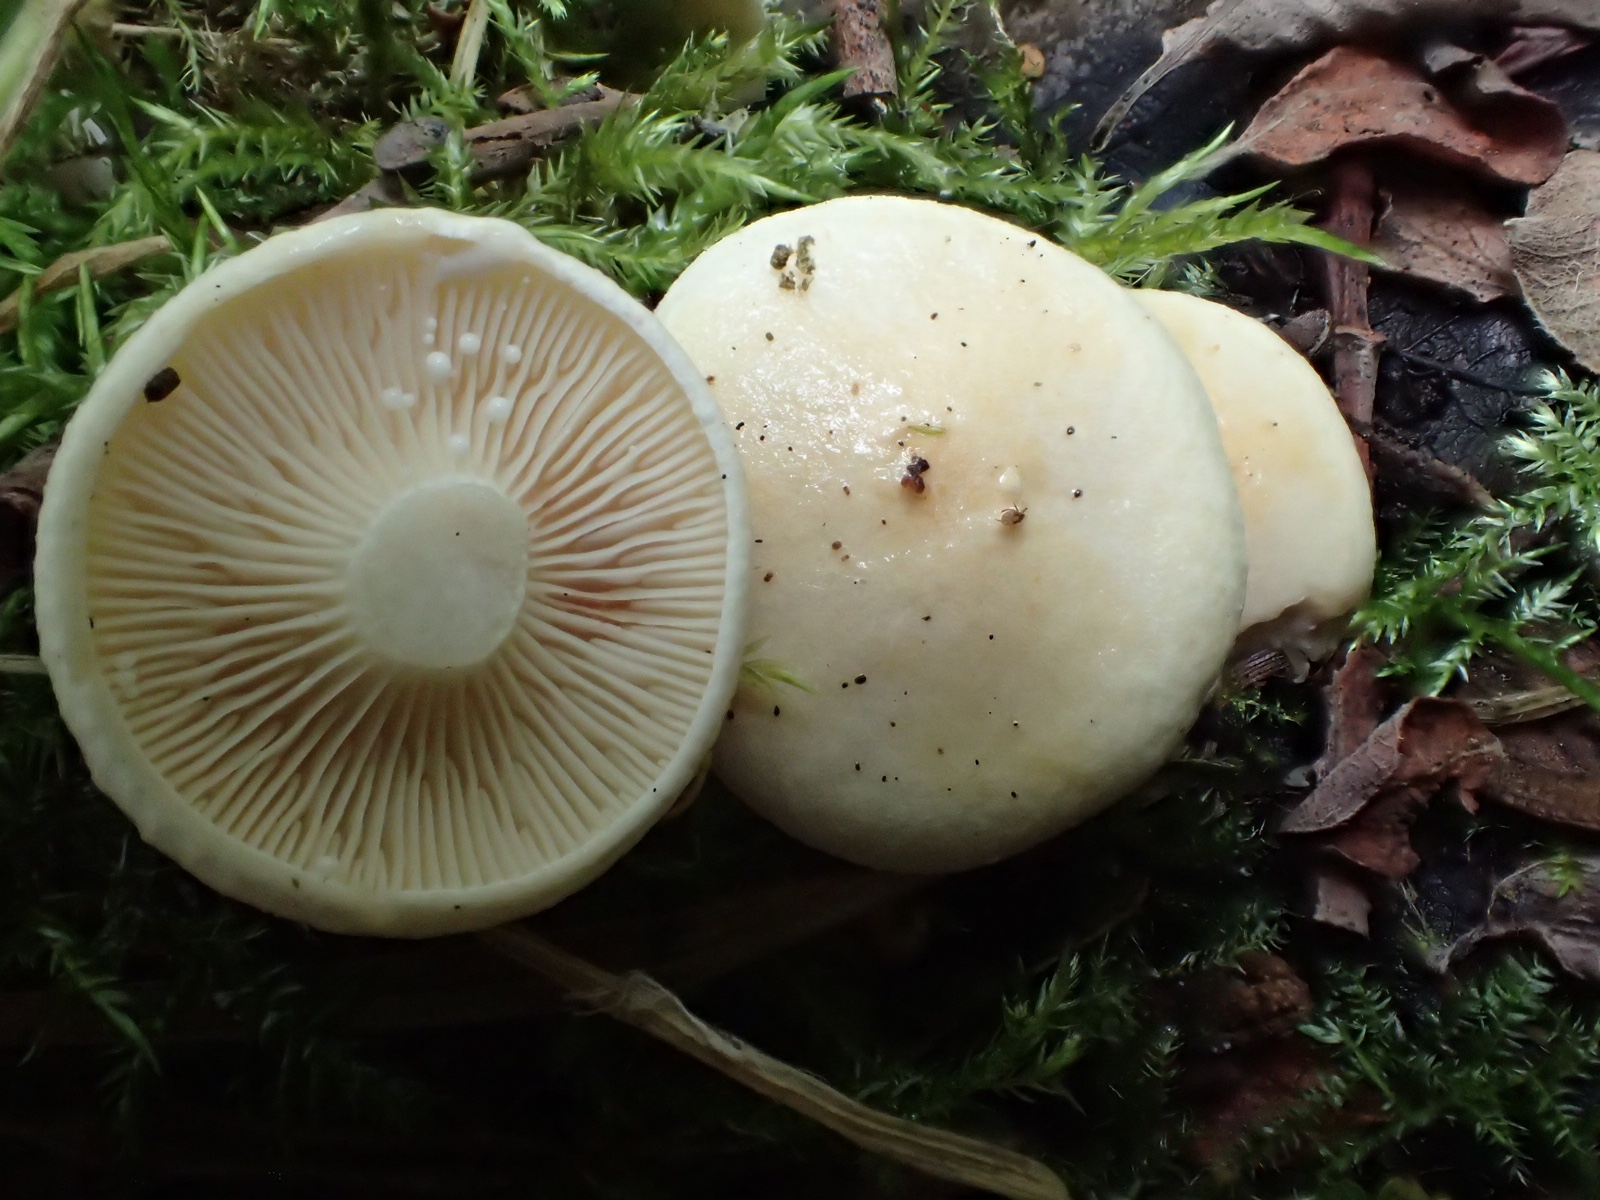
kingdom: Fungi
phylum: Basidiomycota
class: Agaricomycetes
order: Russulales
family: Russulaceae
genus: Lactarius
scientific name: Lactarius aspideus
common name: pile-mælkehat
